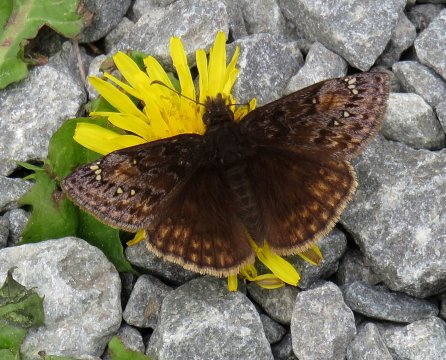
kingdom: Animalia
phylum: Arthropoda
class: Insecta
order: Lepidoptera
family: Hesperiidae
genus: Gesta
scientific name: Gesta
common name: Juvenal's Duskywing
